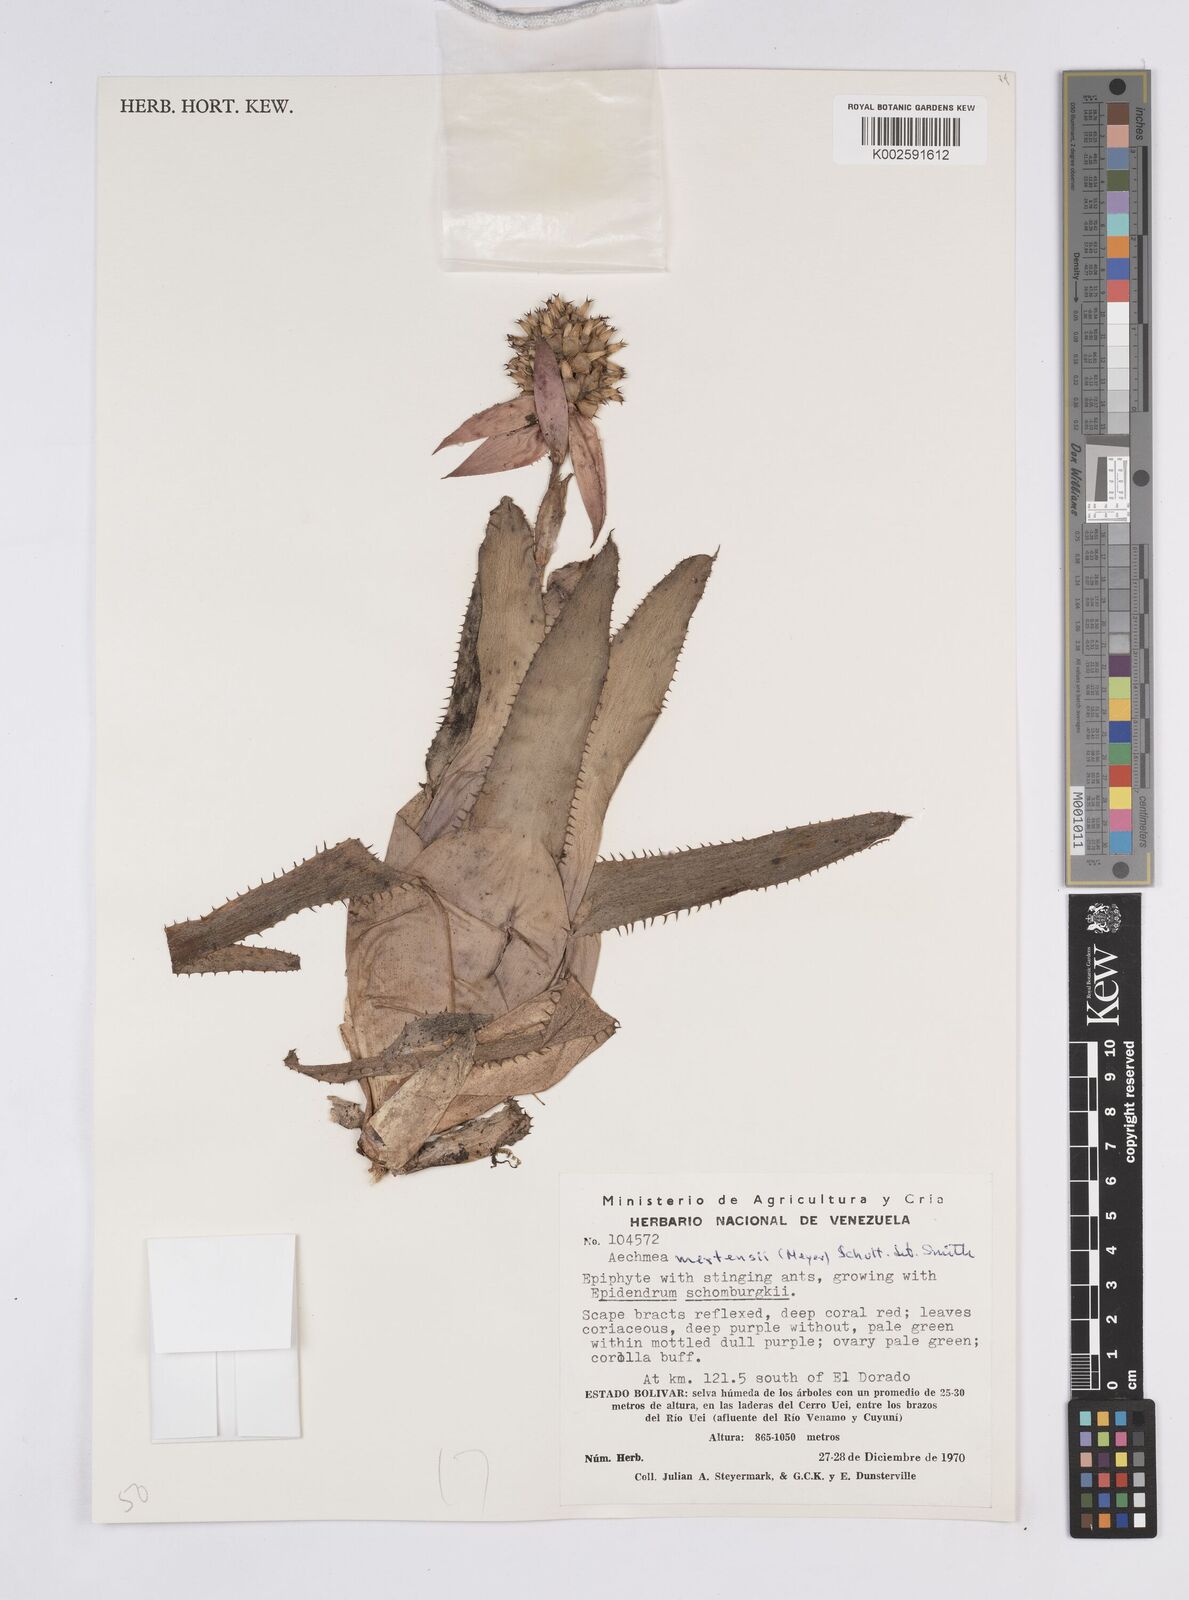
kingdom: Plantae
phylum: Tracheophyta
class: Liliopsida
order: Poales
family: Bromeliaceae
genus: Aechmea
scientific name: Aechmea mertensii
